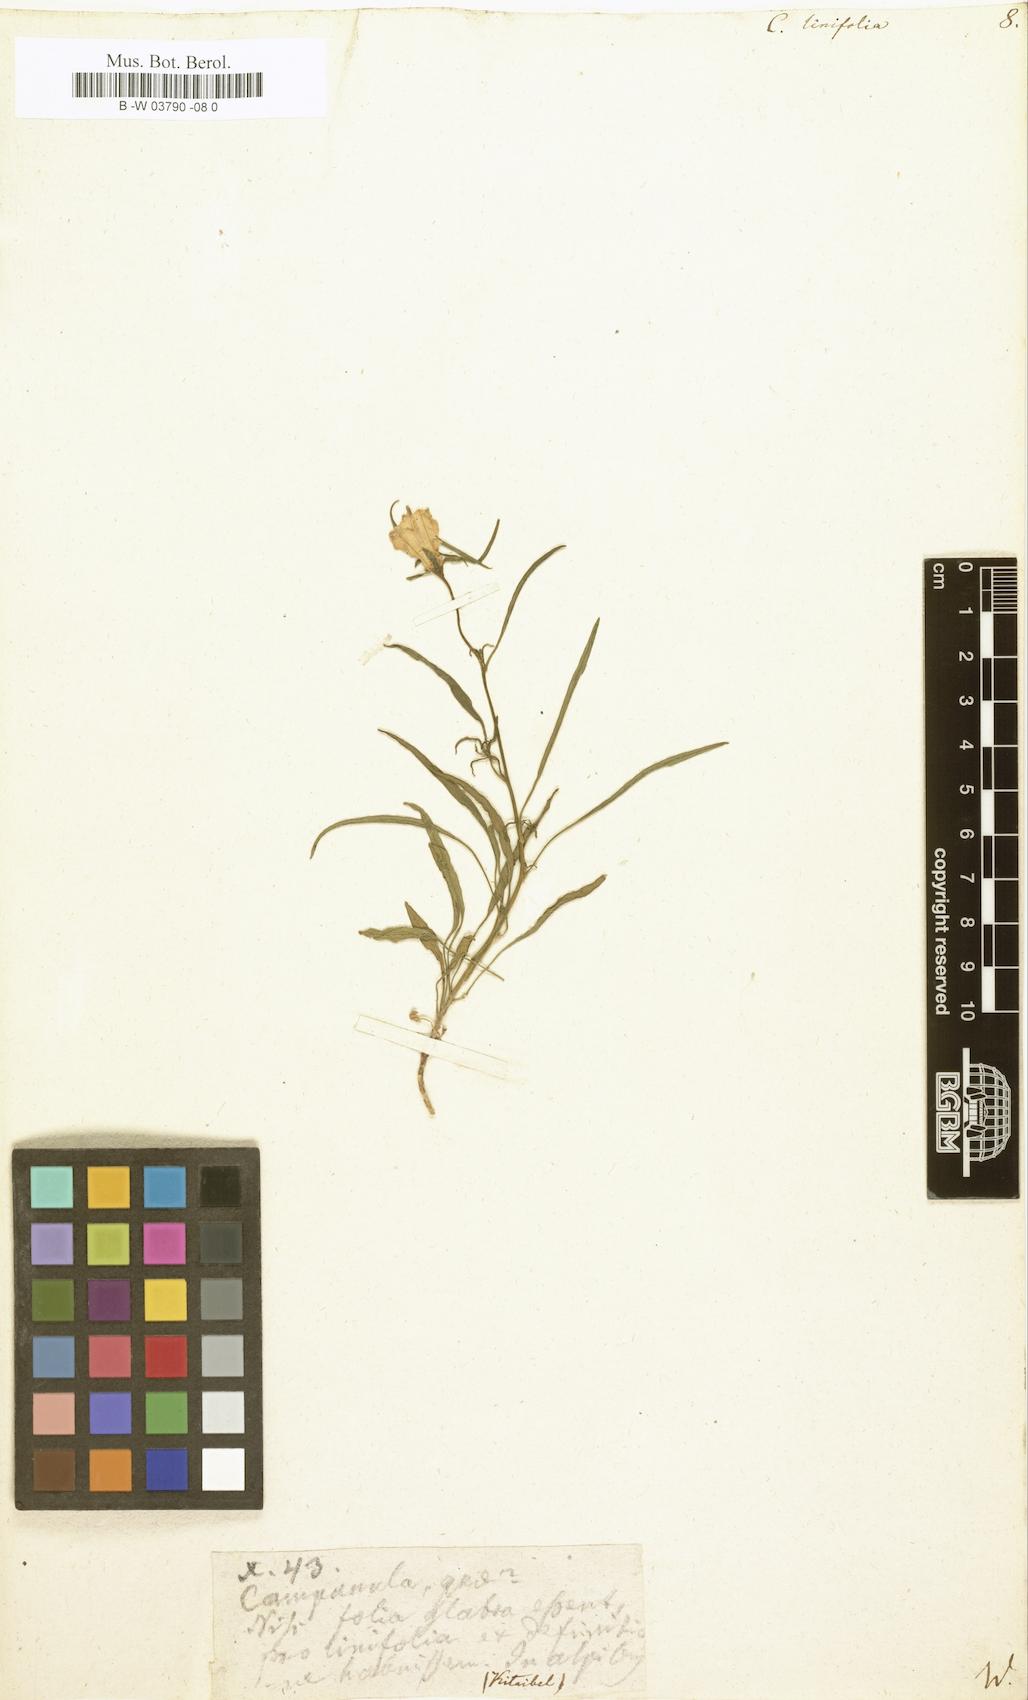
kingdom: Plantae
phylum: Tracheophyta
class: Magnoliopsida
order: Asterales
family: Campanulaceae
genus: Campanula
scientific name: Campanula
